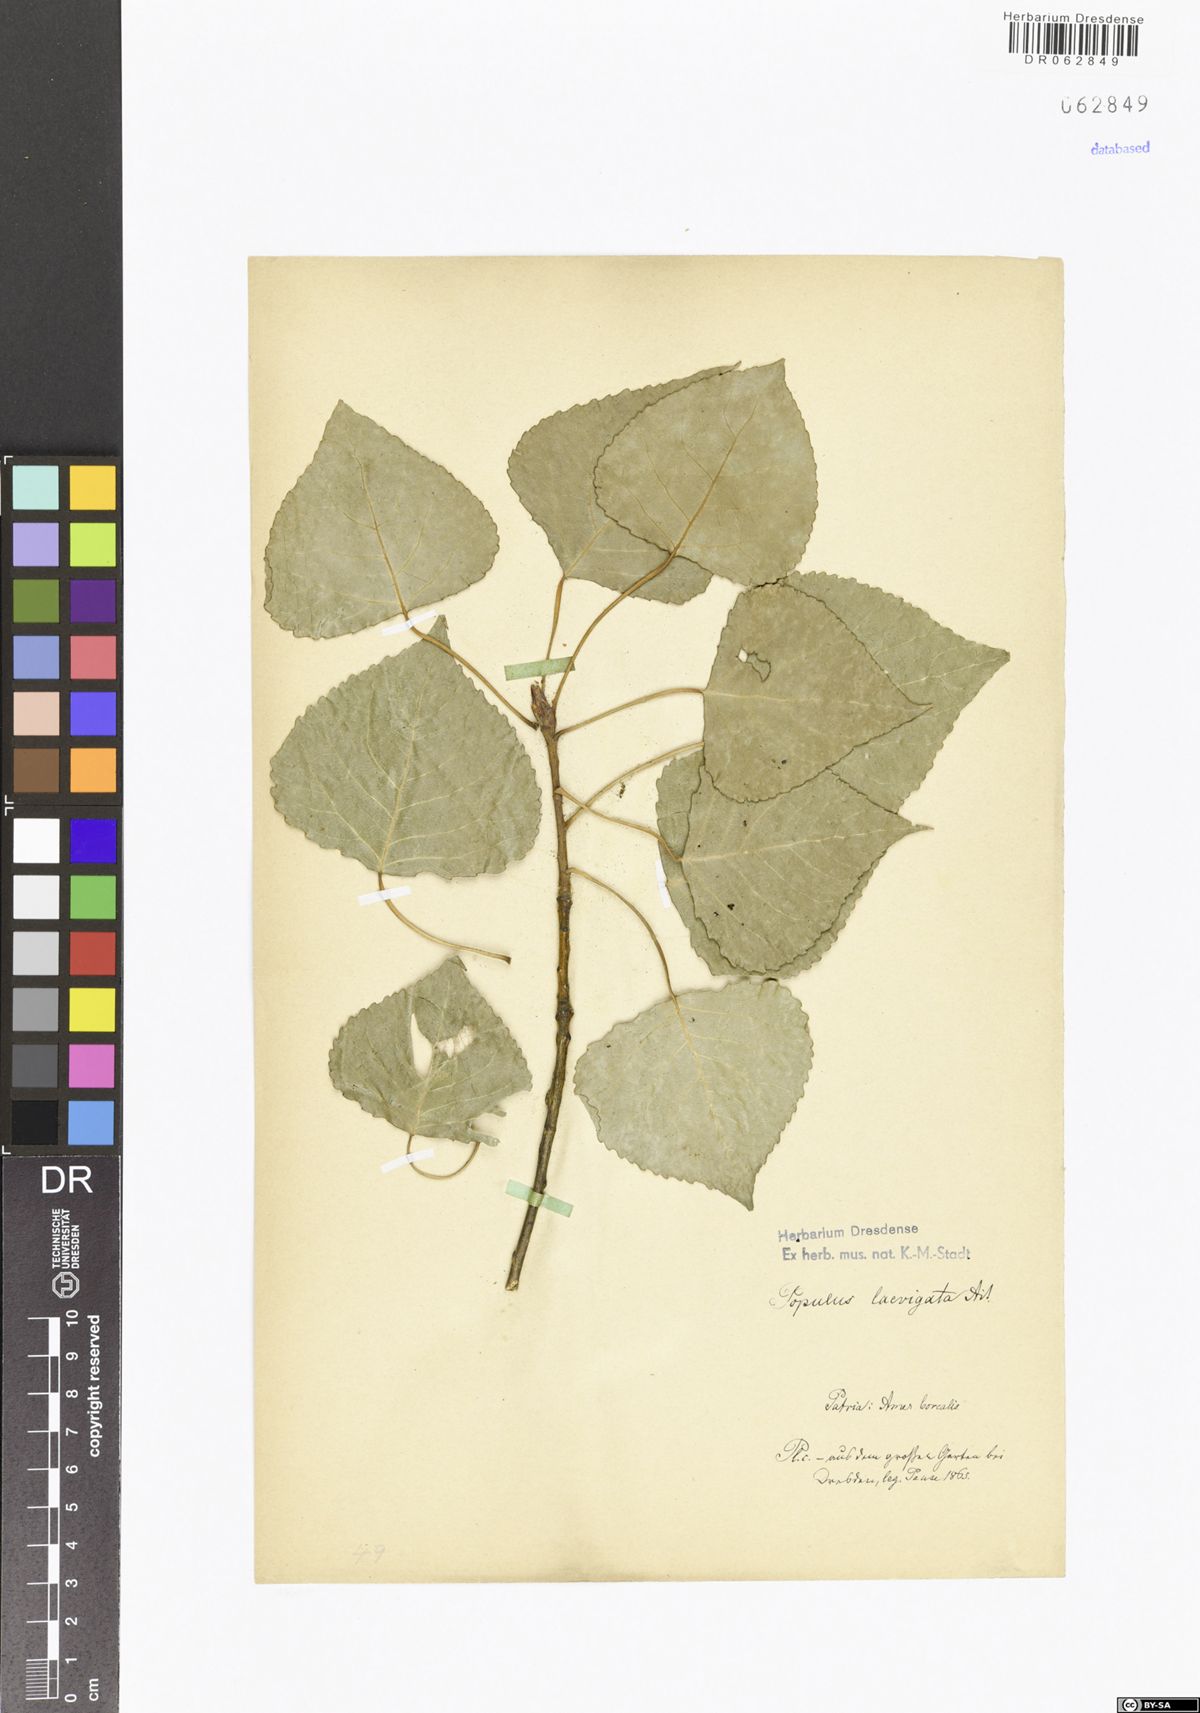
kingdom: Plantae
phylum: Tracheophyta
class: Magnoliopsida
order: Malpighiales
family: Salicaceae
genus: Populus
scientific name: Populus deltoides
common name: Eastern cottonwood
